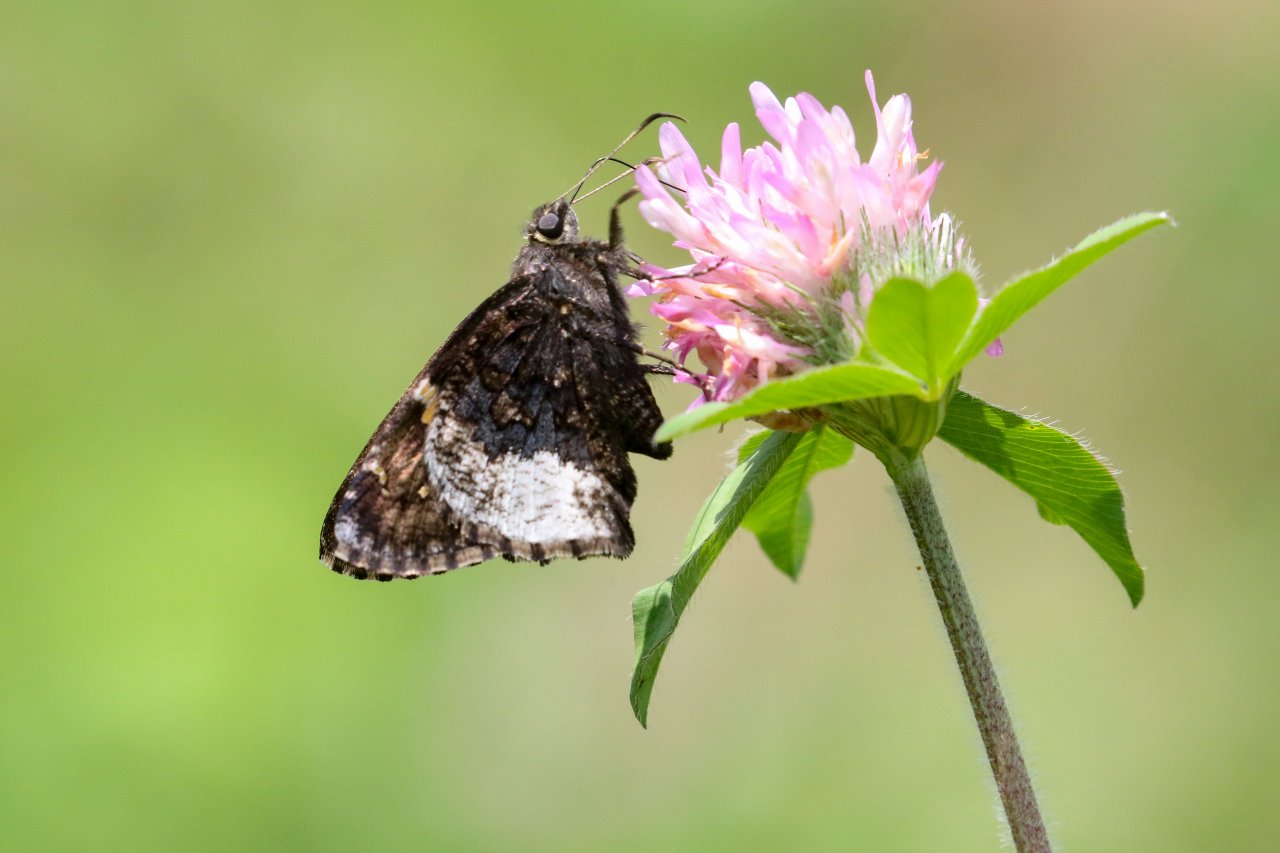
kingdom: Animalia
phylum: Arthropoda
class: Insecta
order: Lepidoptera
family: Hesperiidae
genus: Achalarus
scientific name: Achalarus lyciades
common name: Hoary Edge
